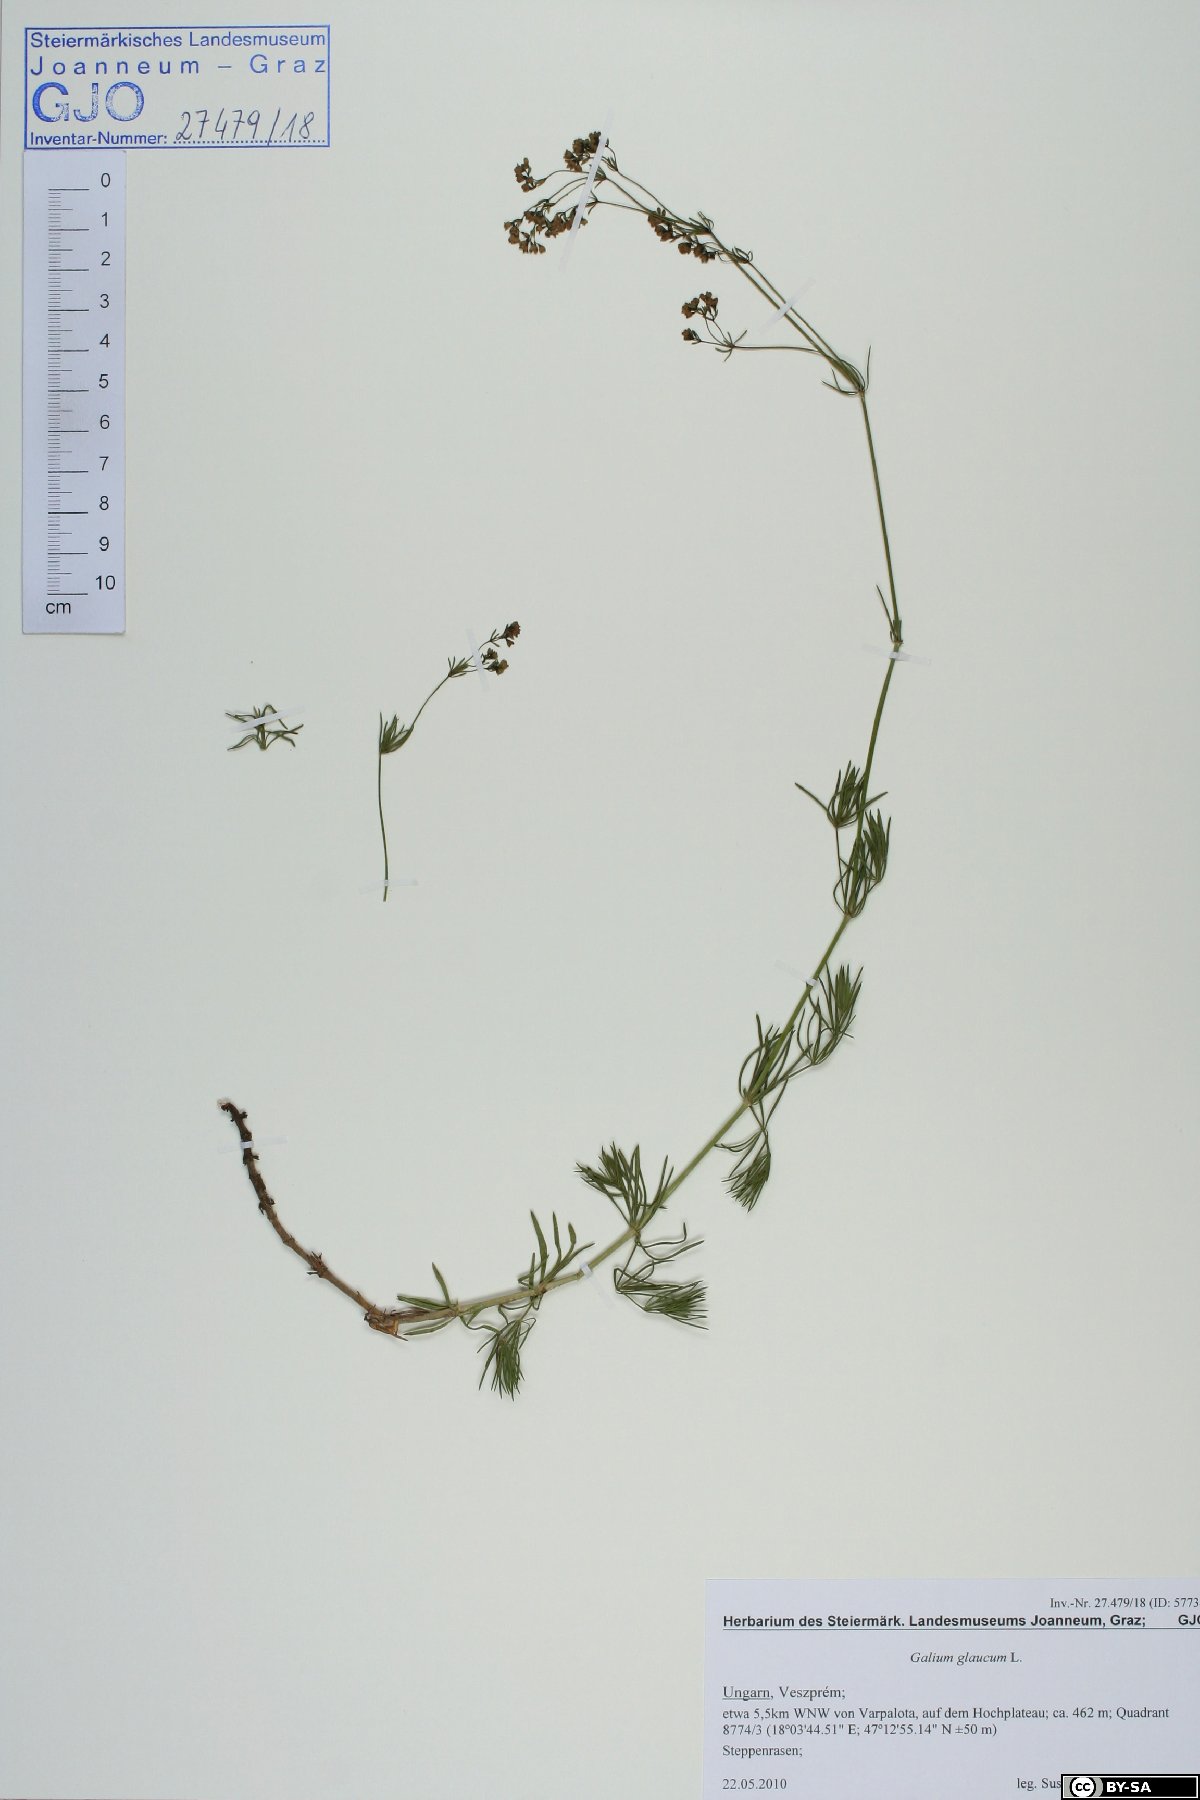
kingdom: Plantae
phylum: Tracheophyta
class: Magnoliopsida
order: Gentianales
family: Rubiaceae
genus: Galium
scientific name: Galium glaucum
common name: Waxy bedstraw
